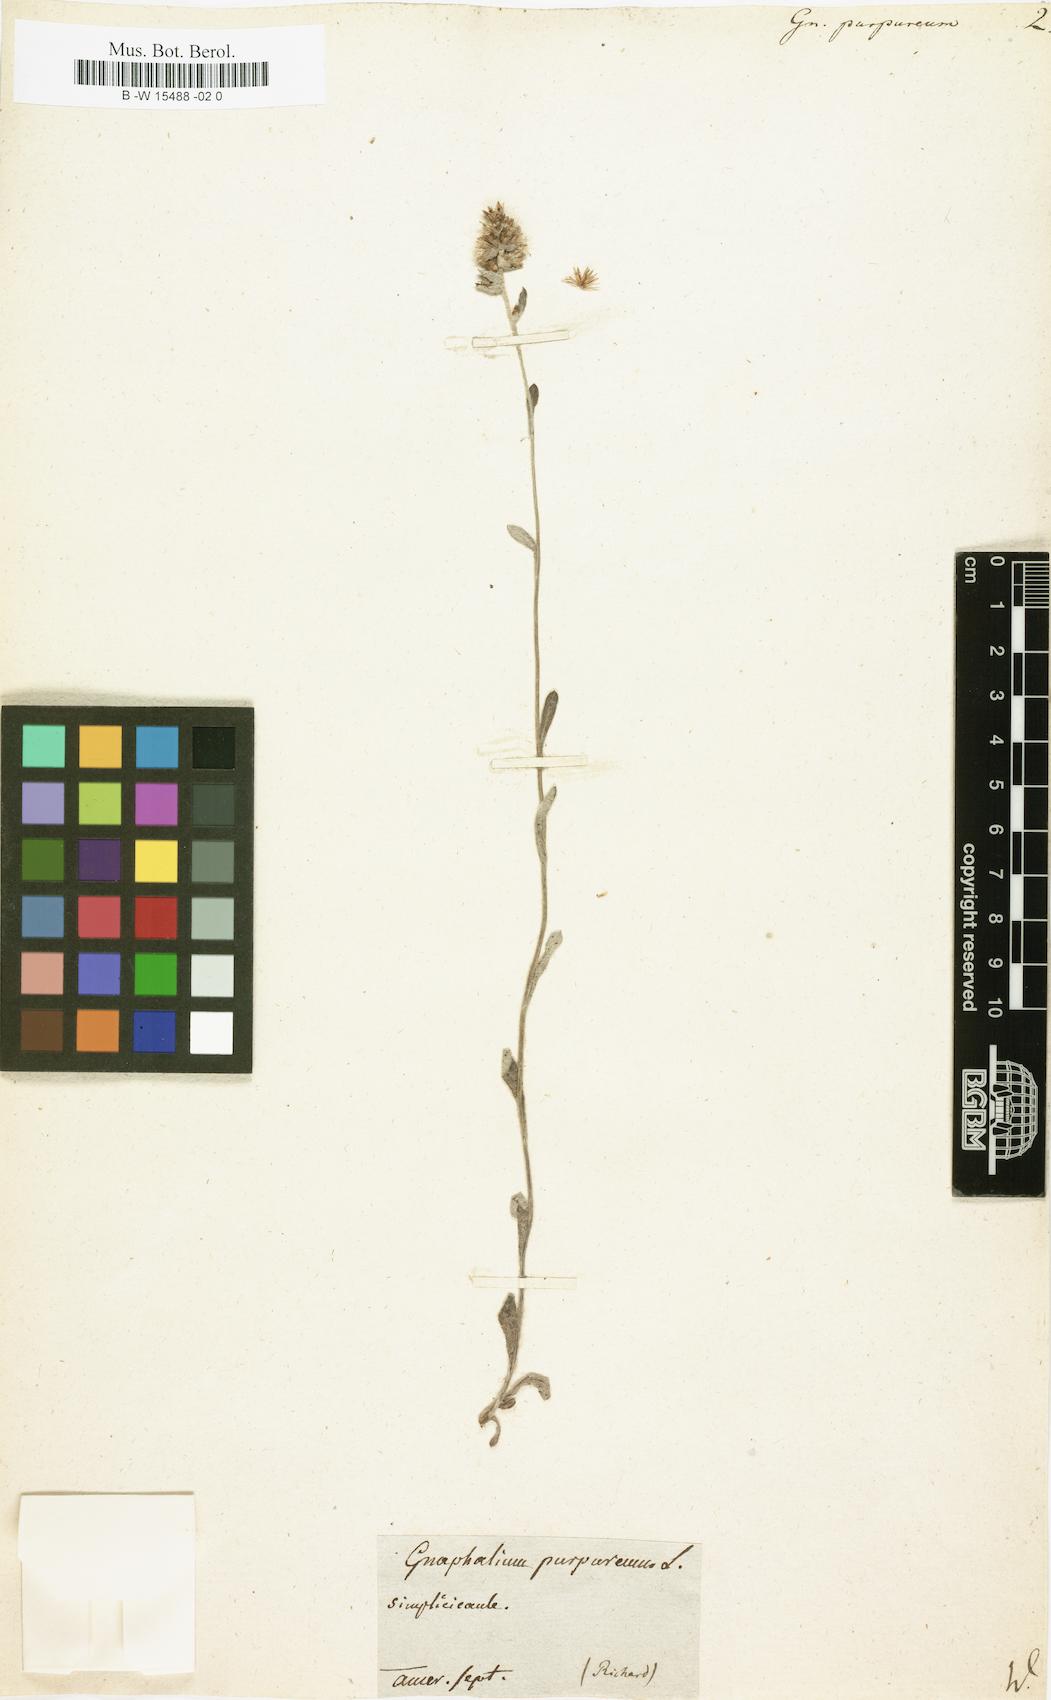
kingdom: Plantae
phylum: Tracheophyta
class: Magnoliopsida
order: Asterales
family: Asteraceae
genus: Gamochaeta
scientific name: Gamochaeta purpurea
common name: Purple cudweed
